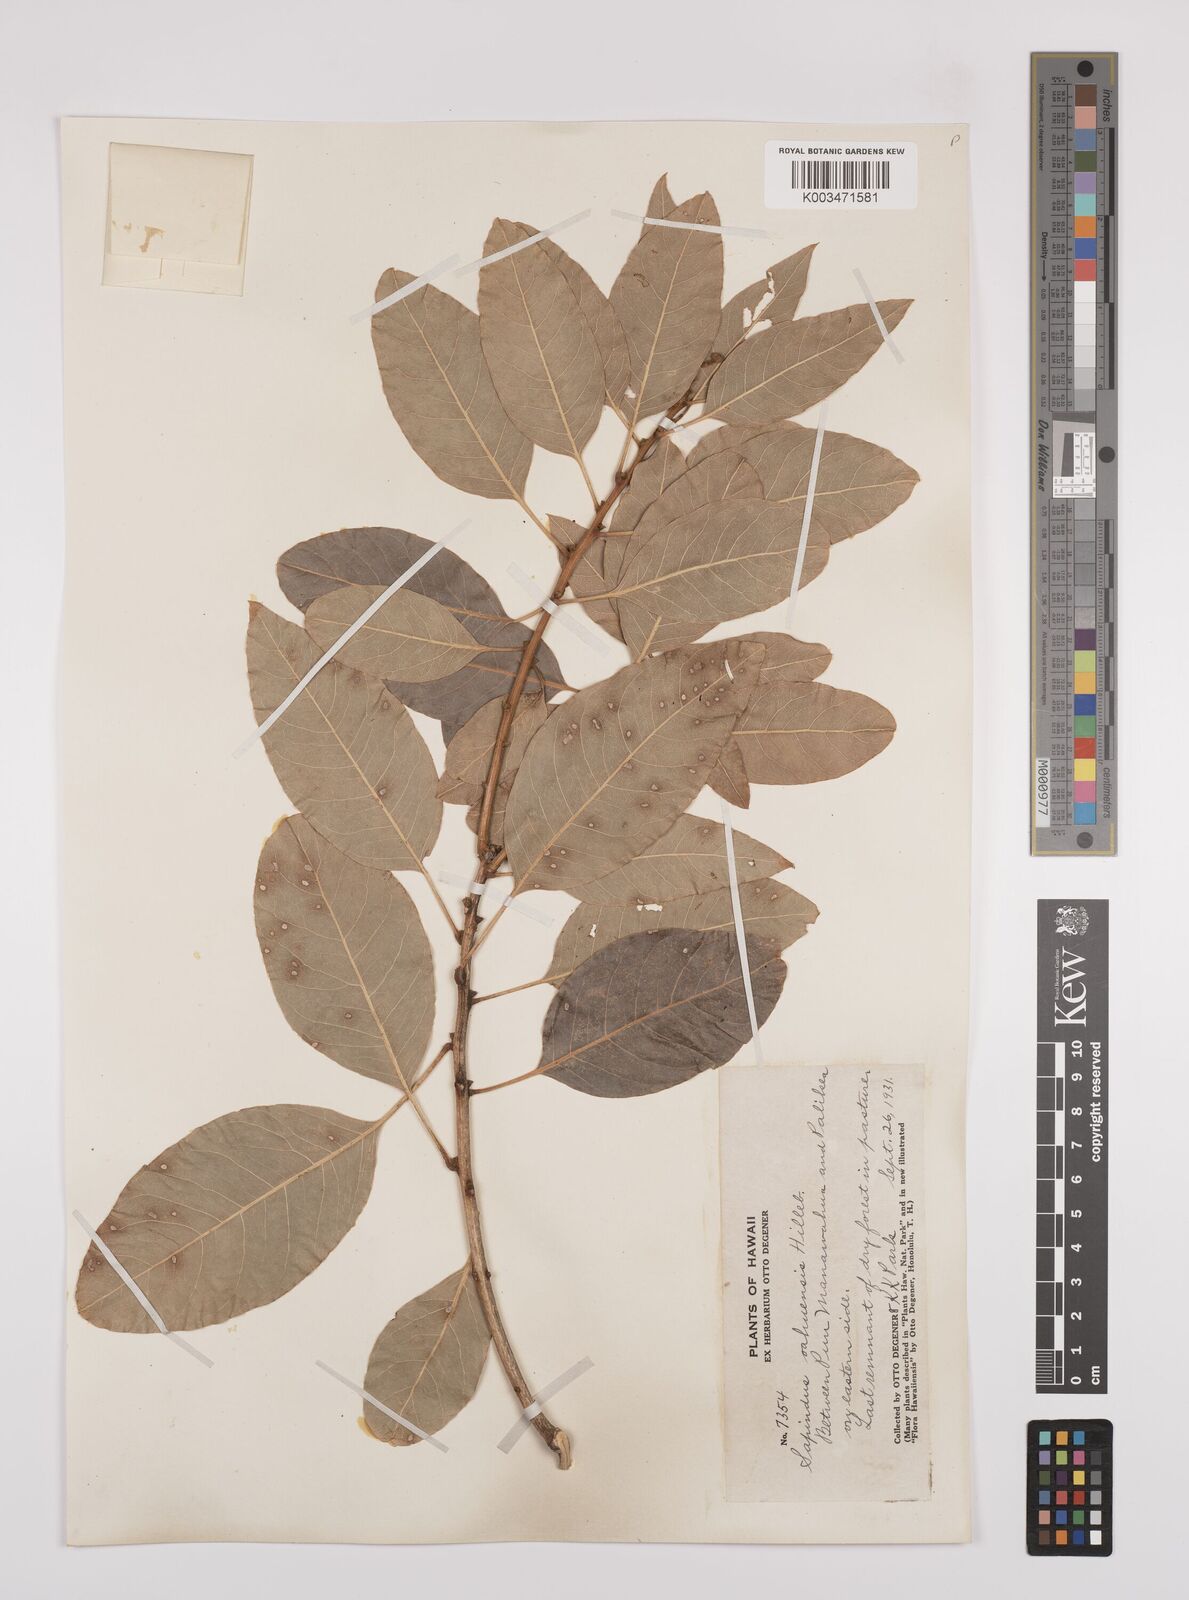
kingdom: Plantae
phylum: Tracheophyta
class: Magnoliopsida
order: Sapindales
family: Sapindaceae
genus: Sapindus
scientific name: Sapindus oahuensis
